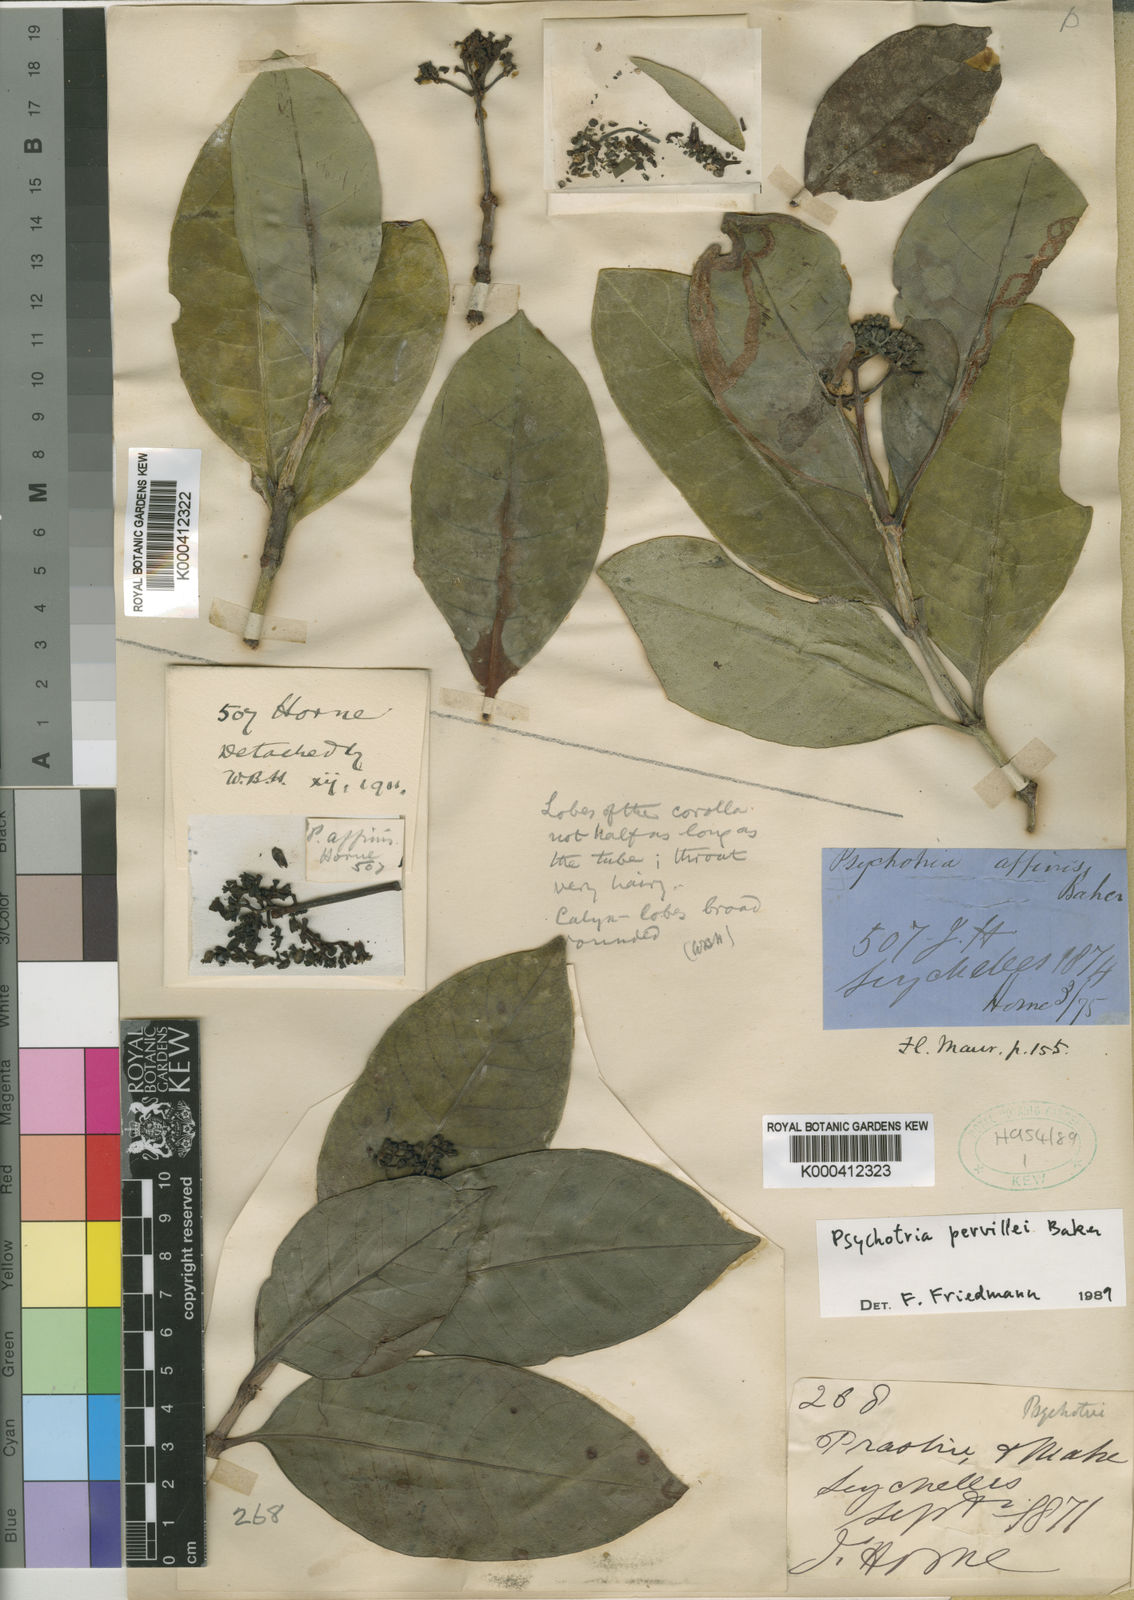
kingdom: Plantae
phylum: Tracheophyta
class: Magnoliopsida
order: Gentianales
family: Rubiaceae
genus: Psychotria
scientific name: Psychotria pervillei
